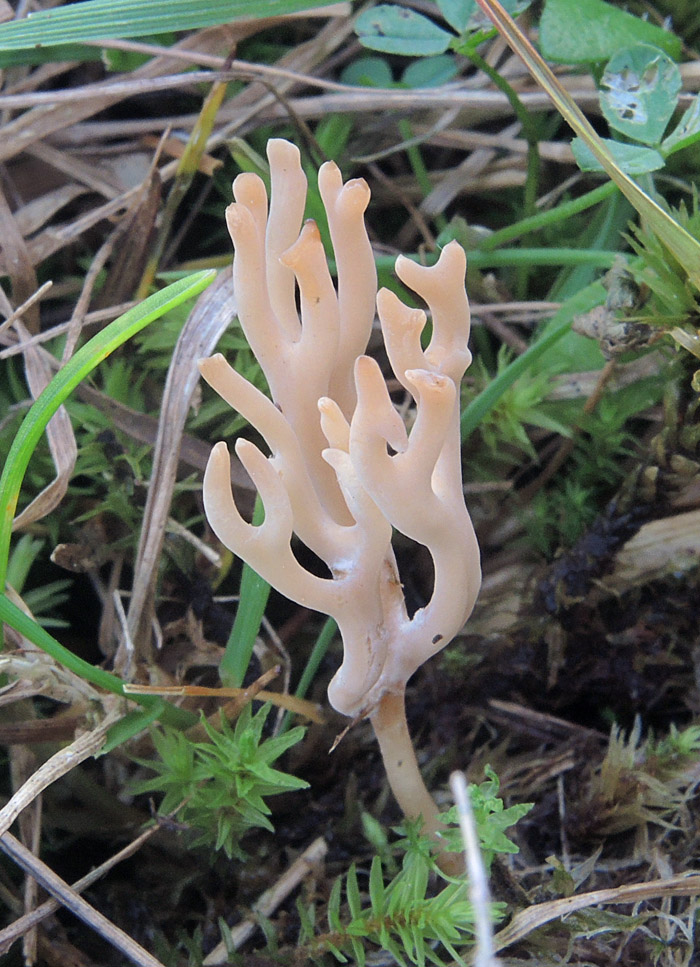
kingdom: Fungi
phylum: Basidiomycota
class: Agaricomycetes
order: Agaricales
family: Clavariaceae
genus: Ramariopsis
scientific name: Ramariopsis subtilis
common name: Slender coral
